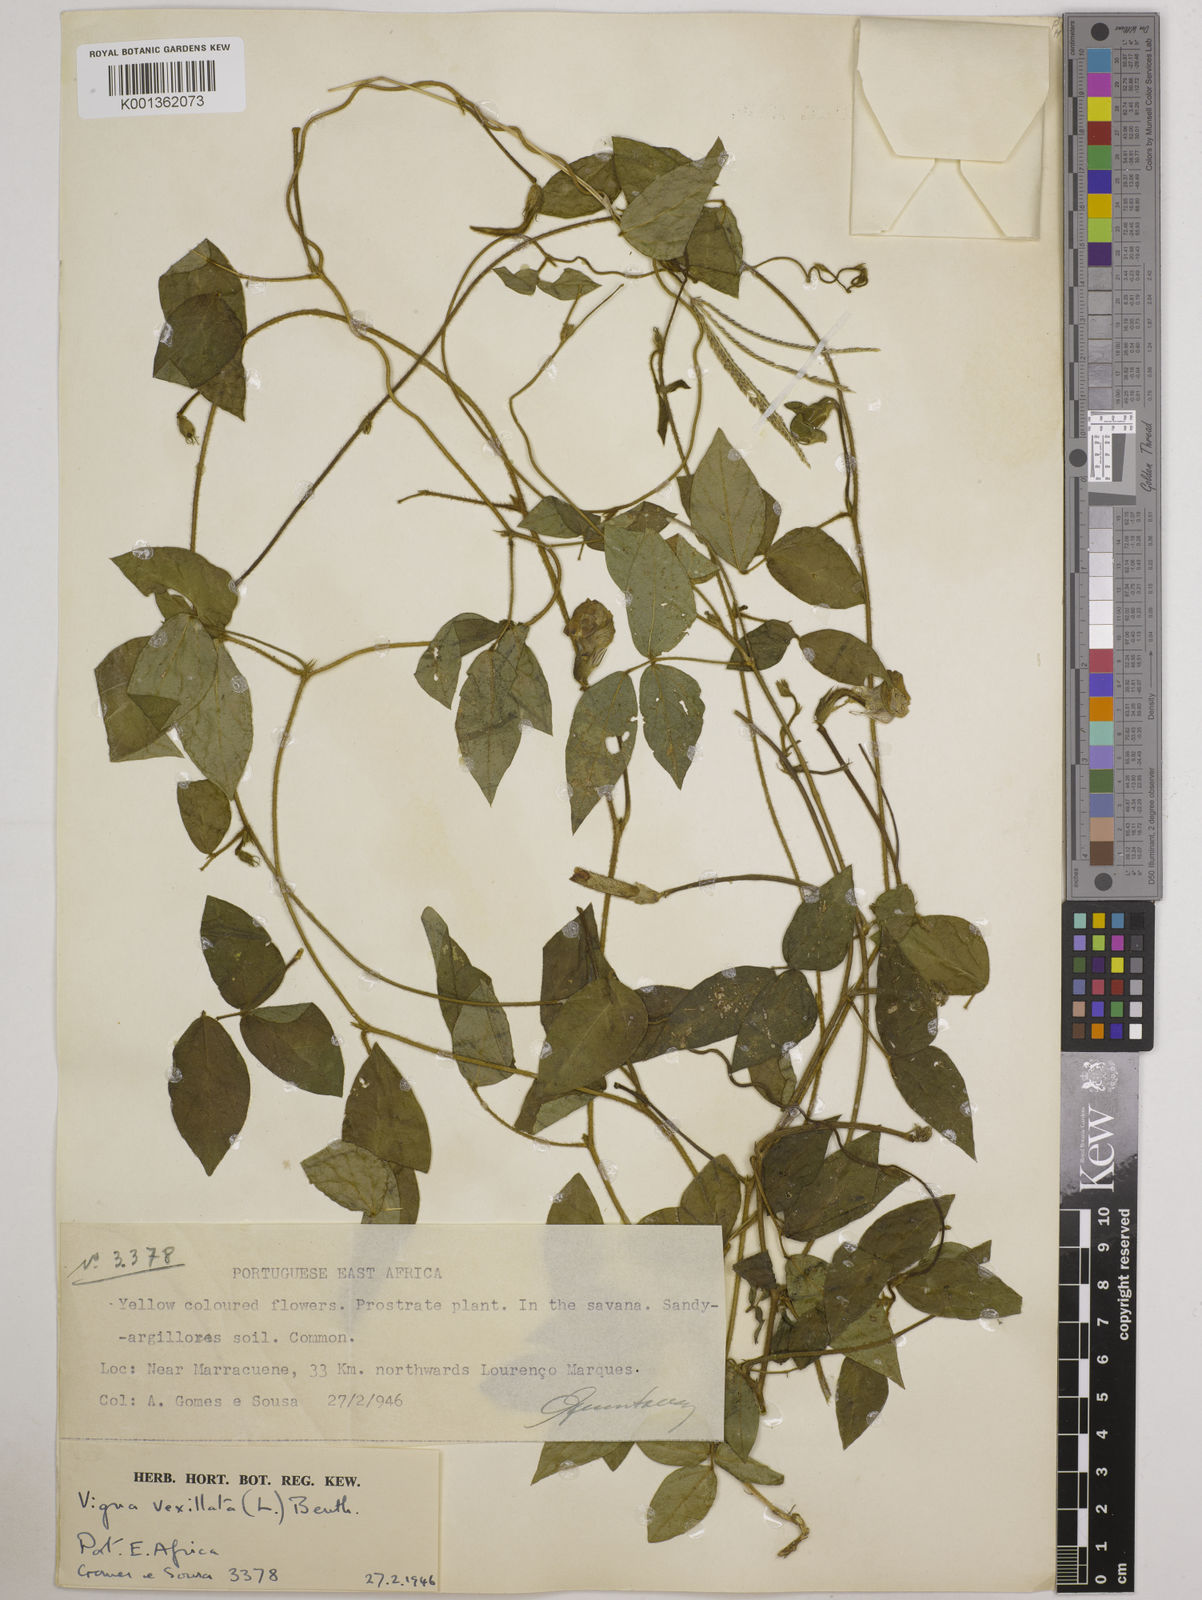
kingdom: Plantae
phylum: Tracheophyta
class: Magnoliopsida
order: Fabales
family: Fabaceae
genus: Vigna
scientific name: Vigna vexillata
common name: Zombi pea
